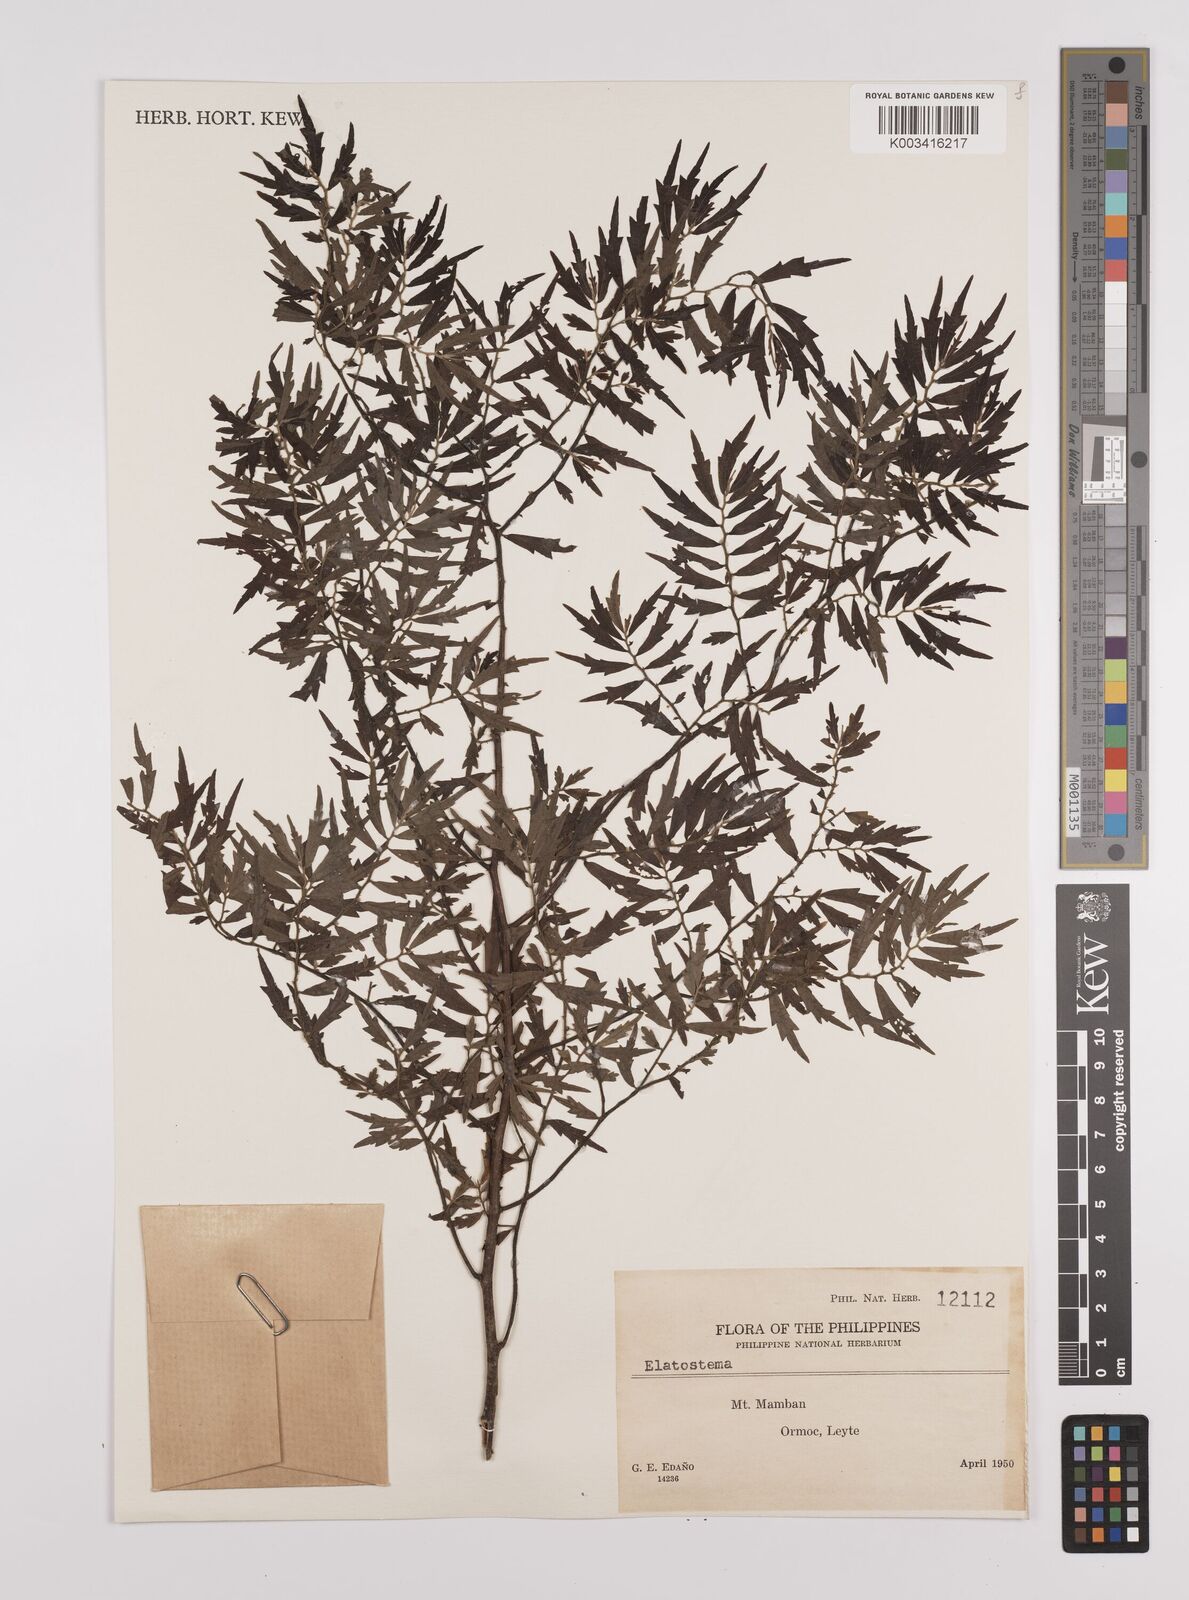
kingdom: Plantae
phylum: Tracheophyta
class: Magnoliopsida
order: Rosales
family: Urticaceae
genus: Elatostema
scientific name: Elatostema
